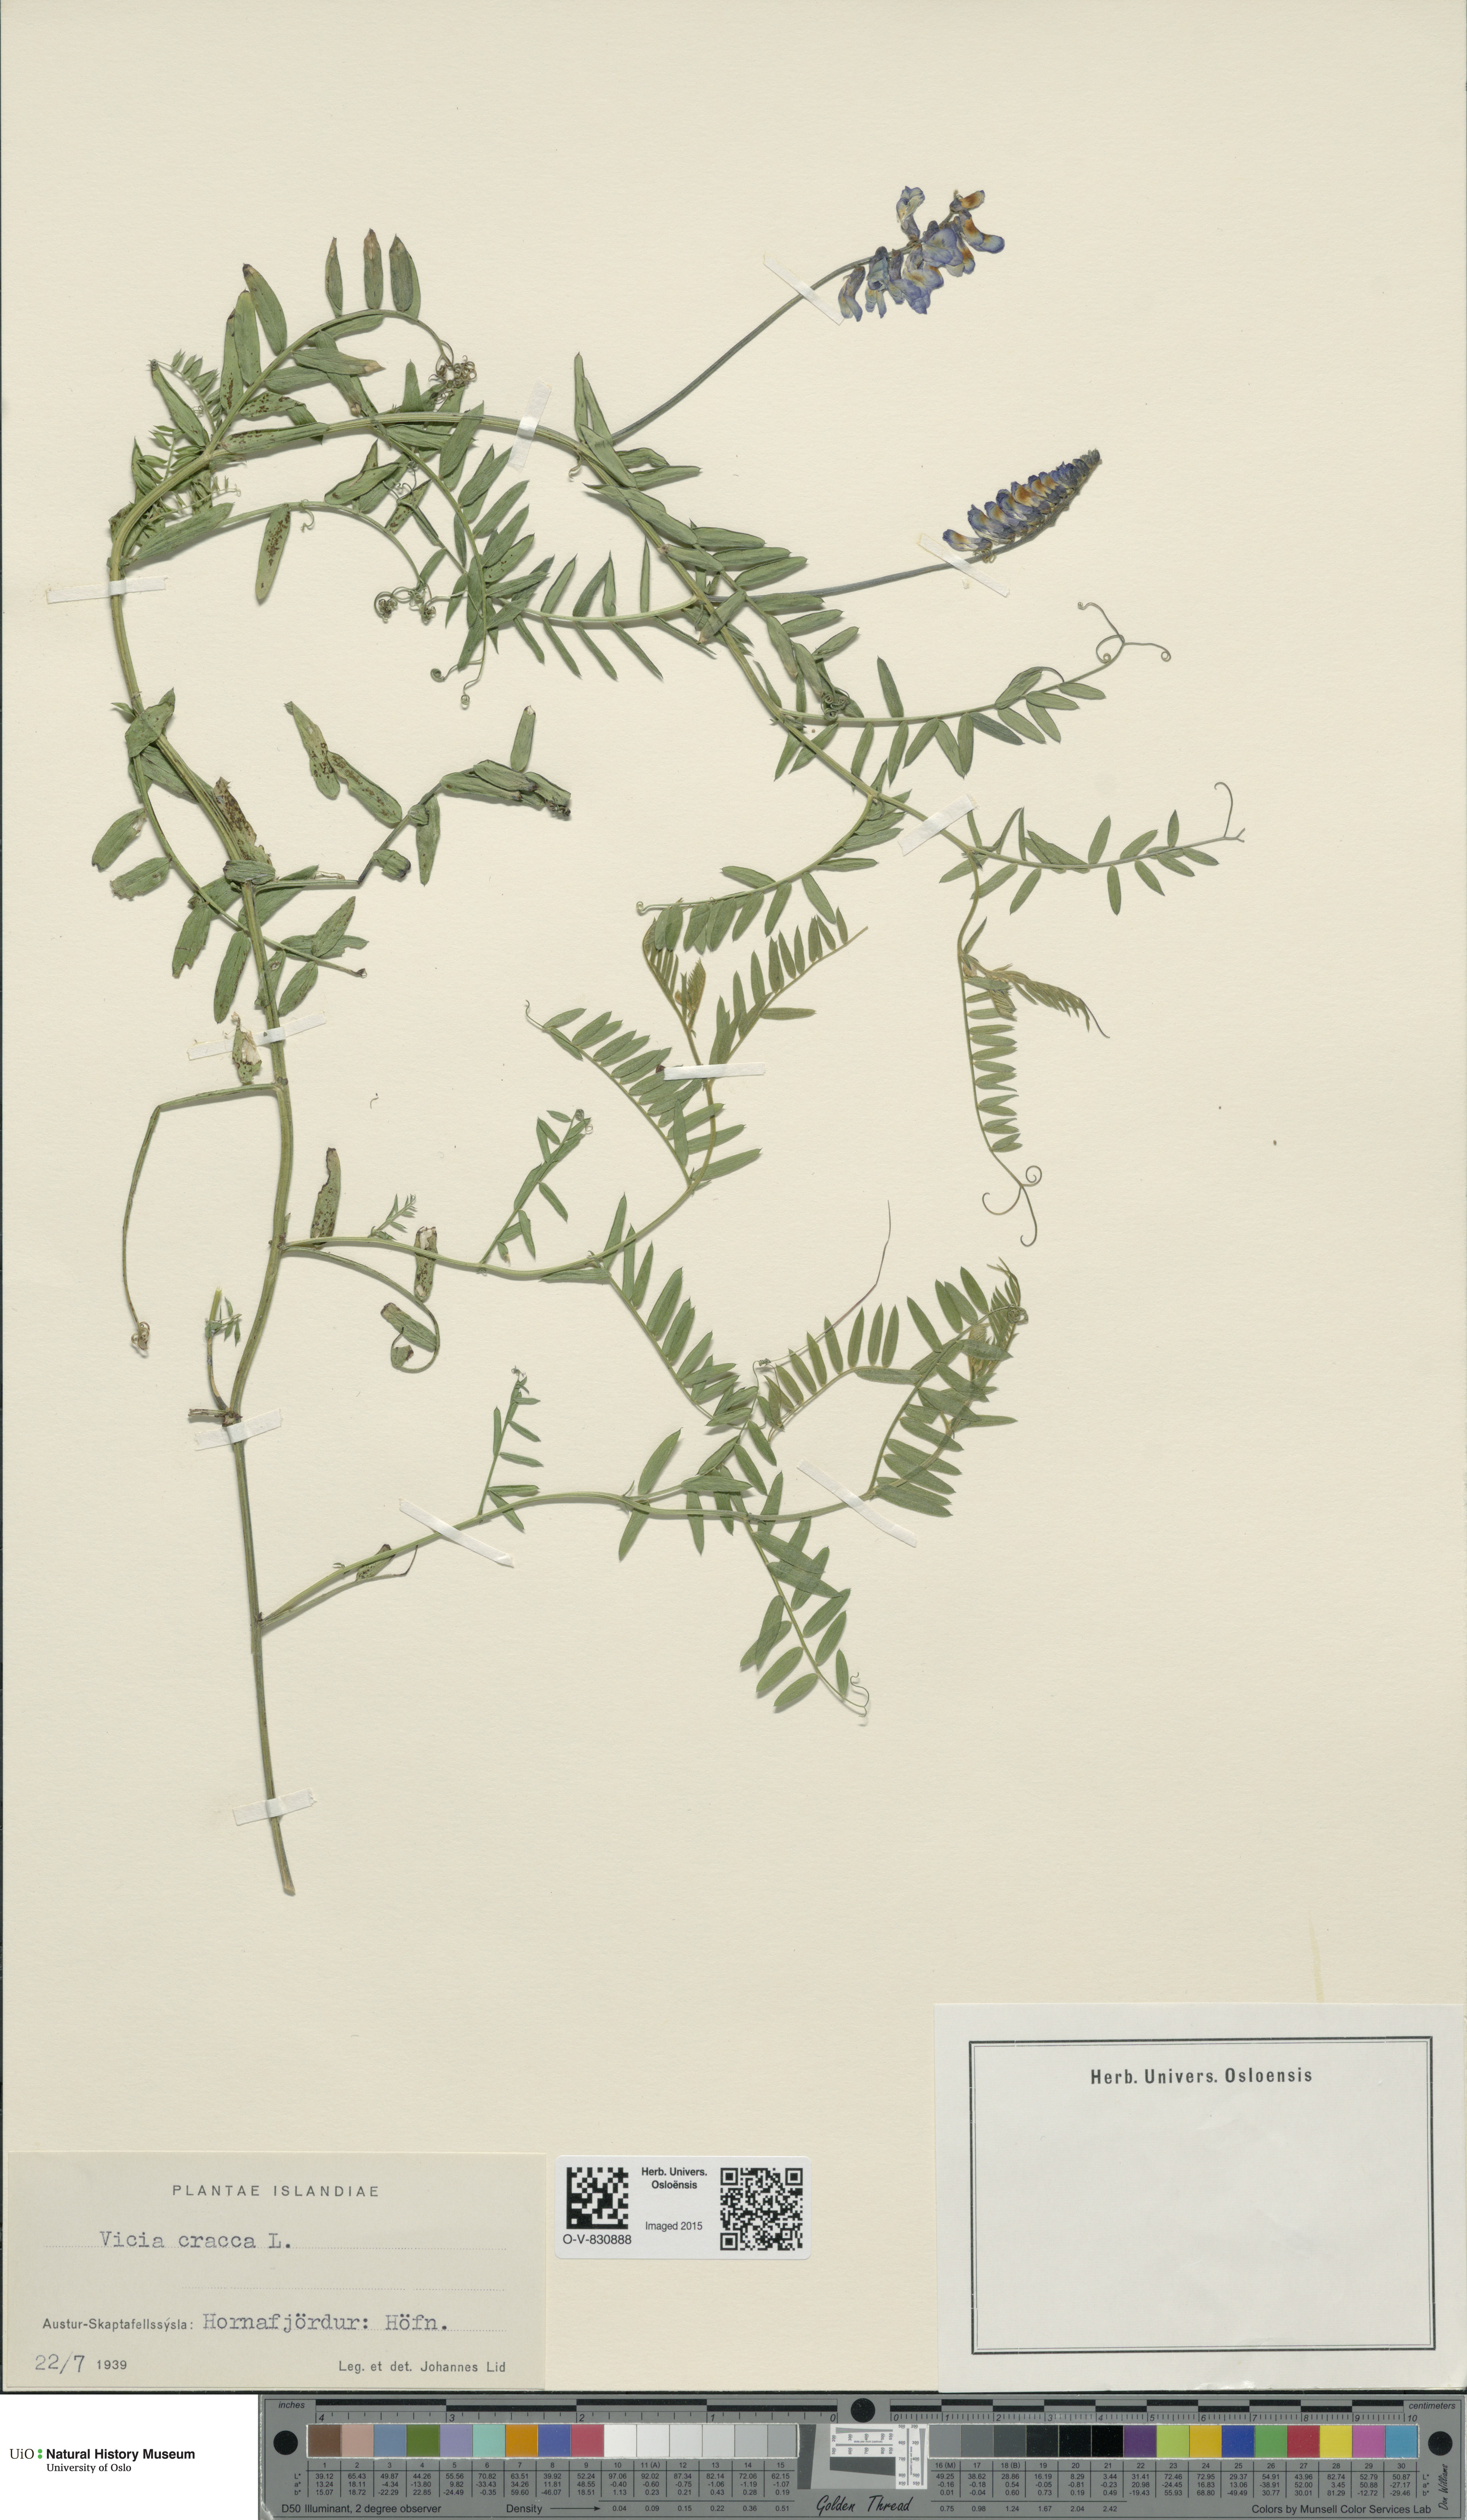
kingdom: Plantae
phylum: Tracheophyta
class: Magnoliopsida
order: Fabales
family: Fabaceae
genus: Vicia
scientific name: Vicia cracca
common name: Bird vetch
